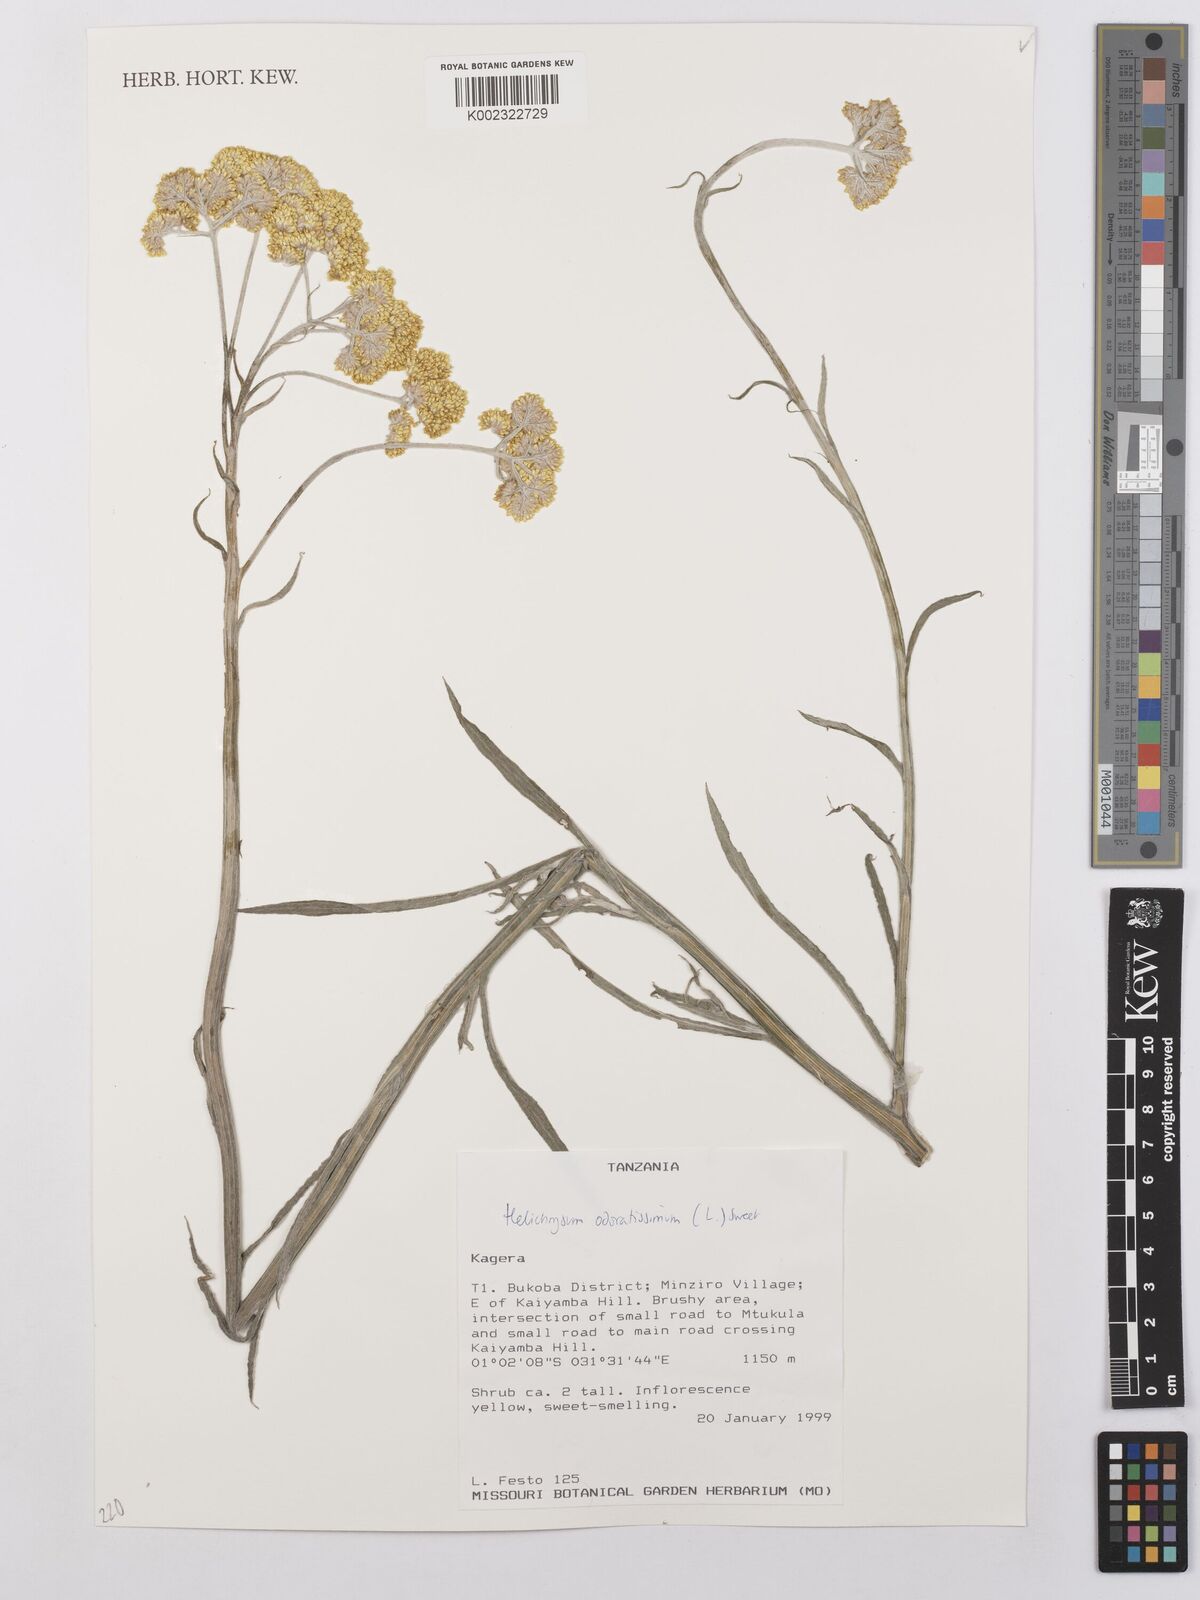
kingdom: Plantae
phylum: Tracheophyta
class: Magnoliopsida
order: Asterales
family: Asteraceae
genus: Helichrysum
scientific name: Helichrysum odoratissimum
